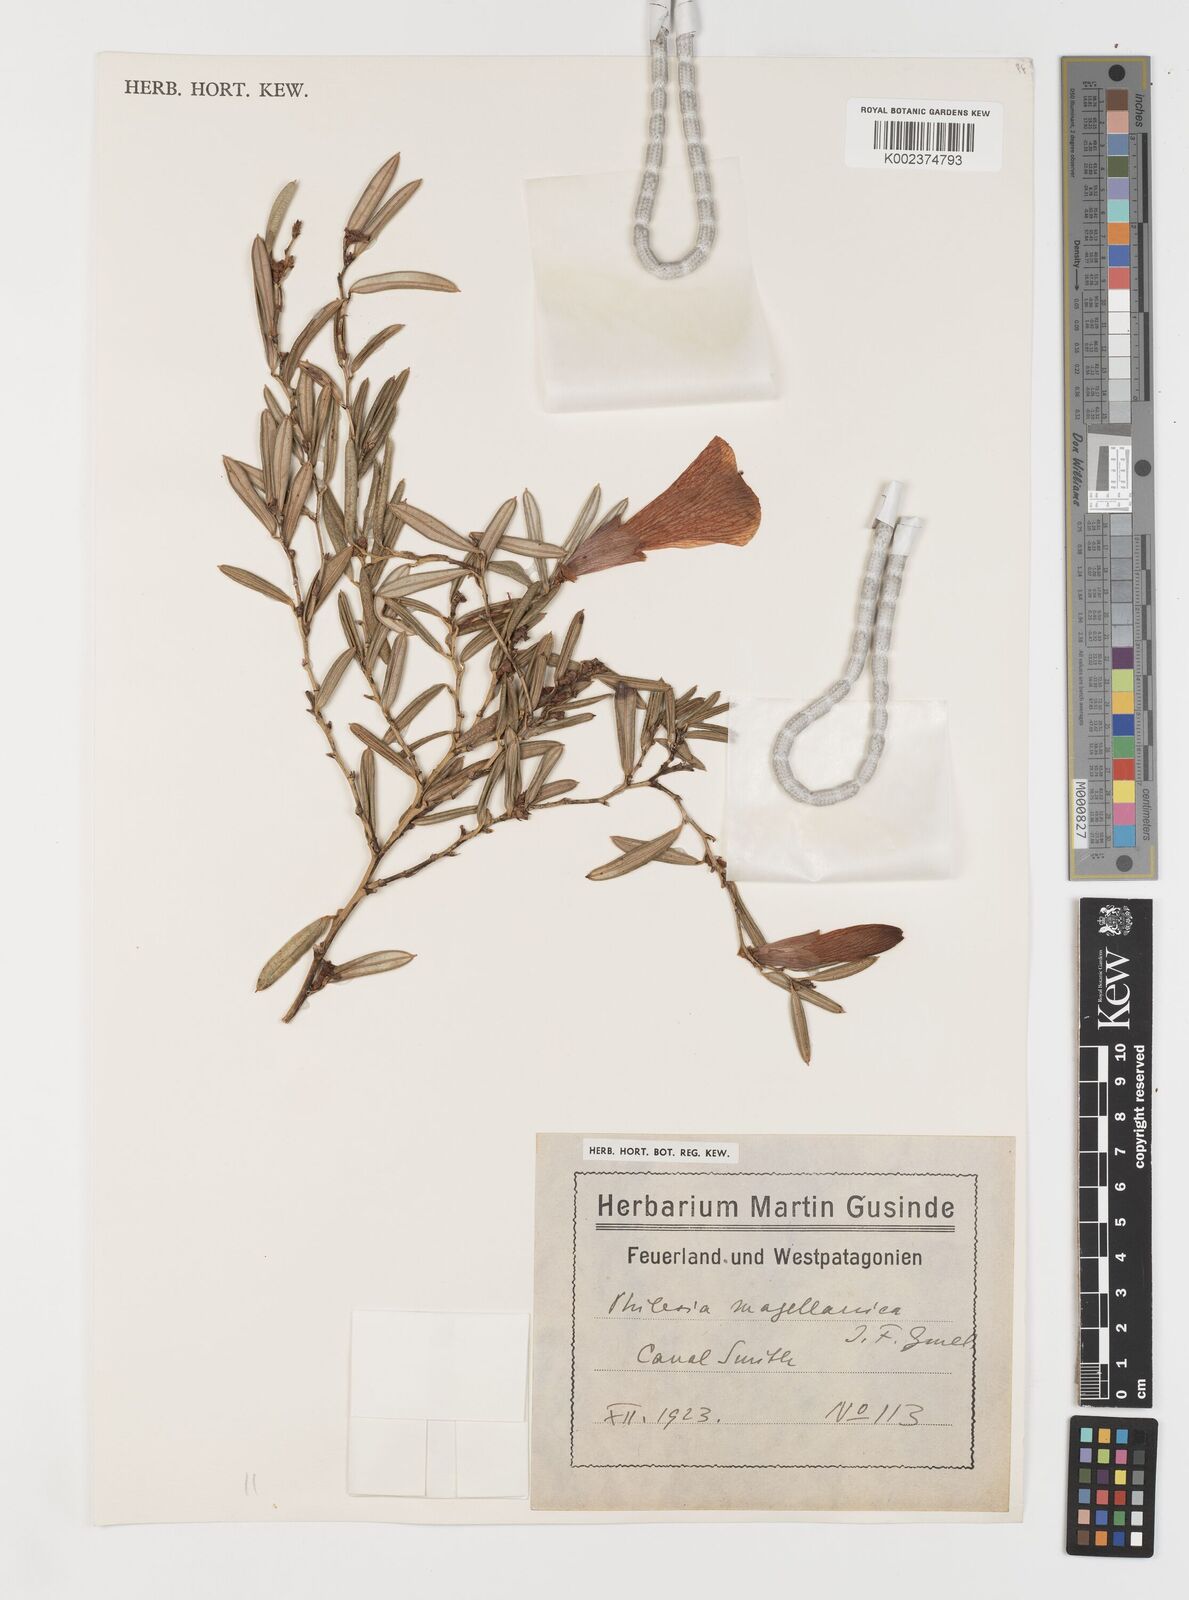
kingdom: Plantae
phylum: Tracheophyta
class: Liliopsida
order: Liliales
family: Philesiaceae
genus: Philesia
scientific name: Philesia magellanica
